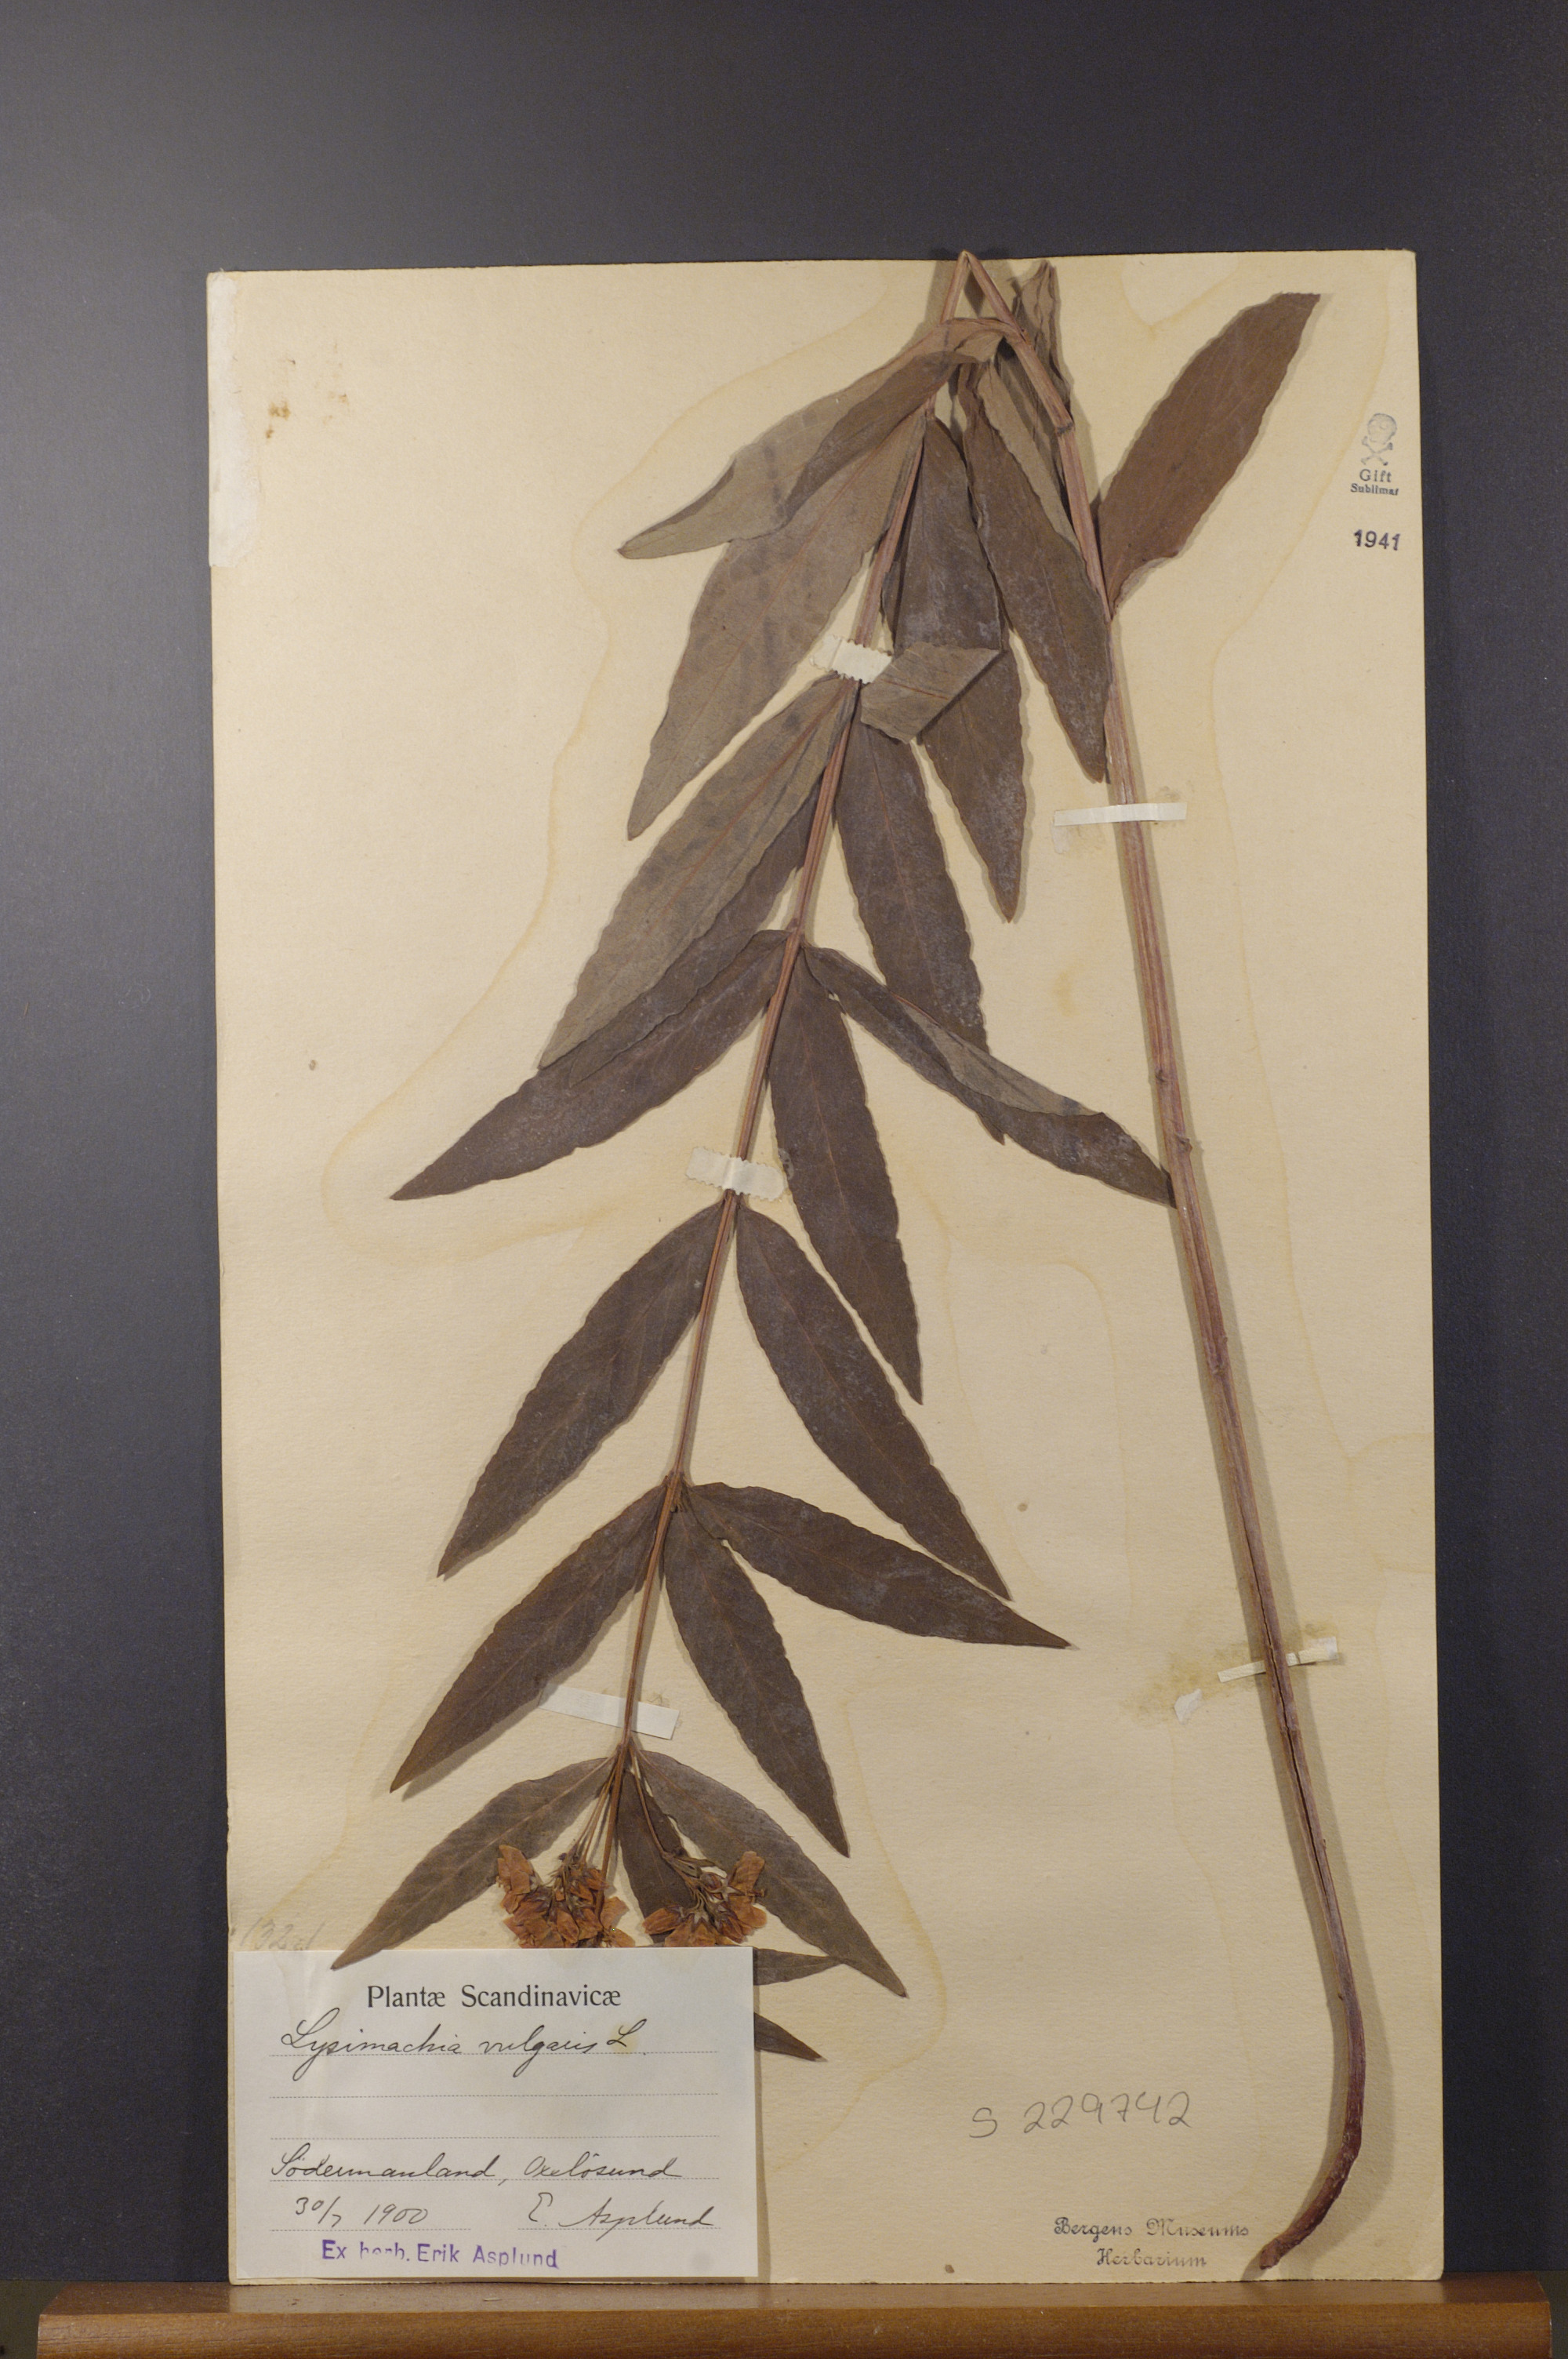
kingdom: Plantae
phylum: Tracheophyta
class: Magnoliopsida
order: Ericales
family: Primulaceae
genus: Lysimachia
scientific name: Lysimachia vulgaris
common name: Yellow loosestrife
